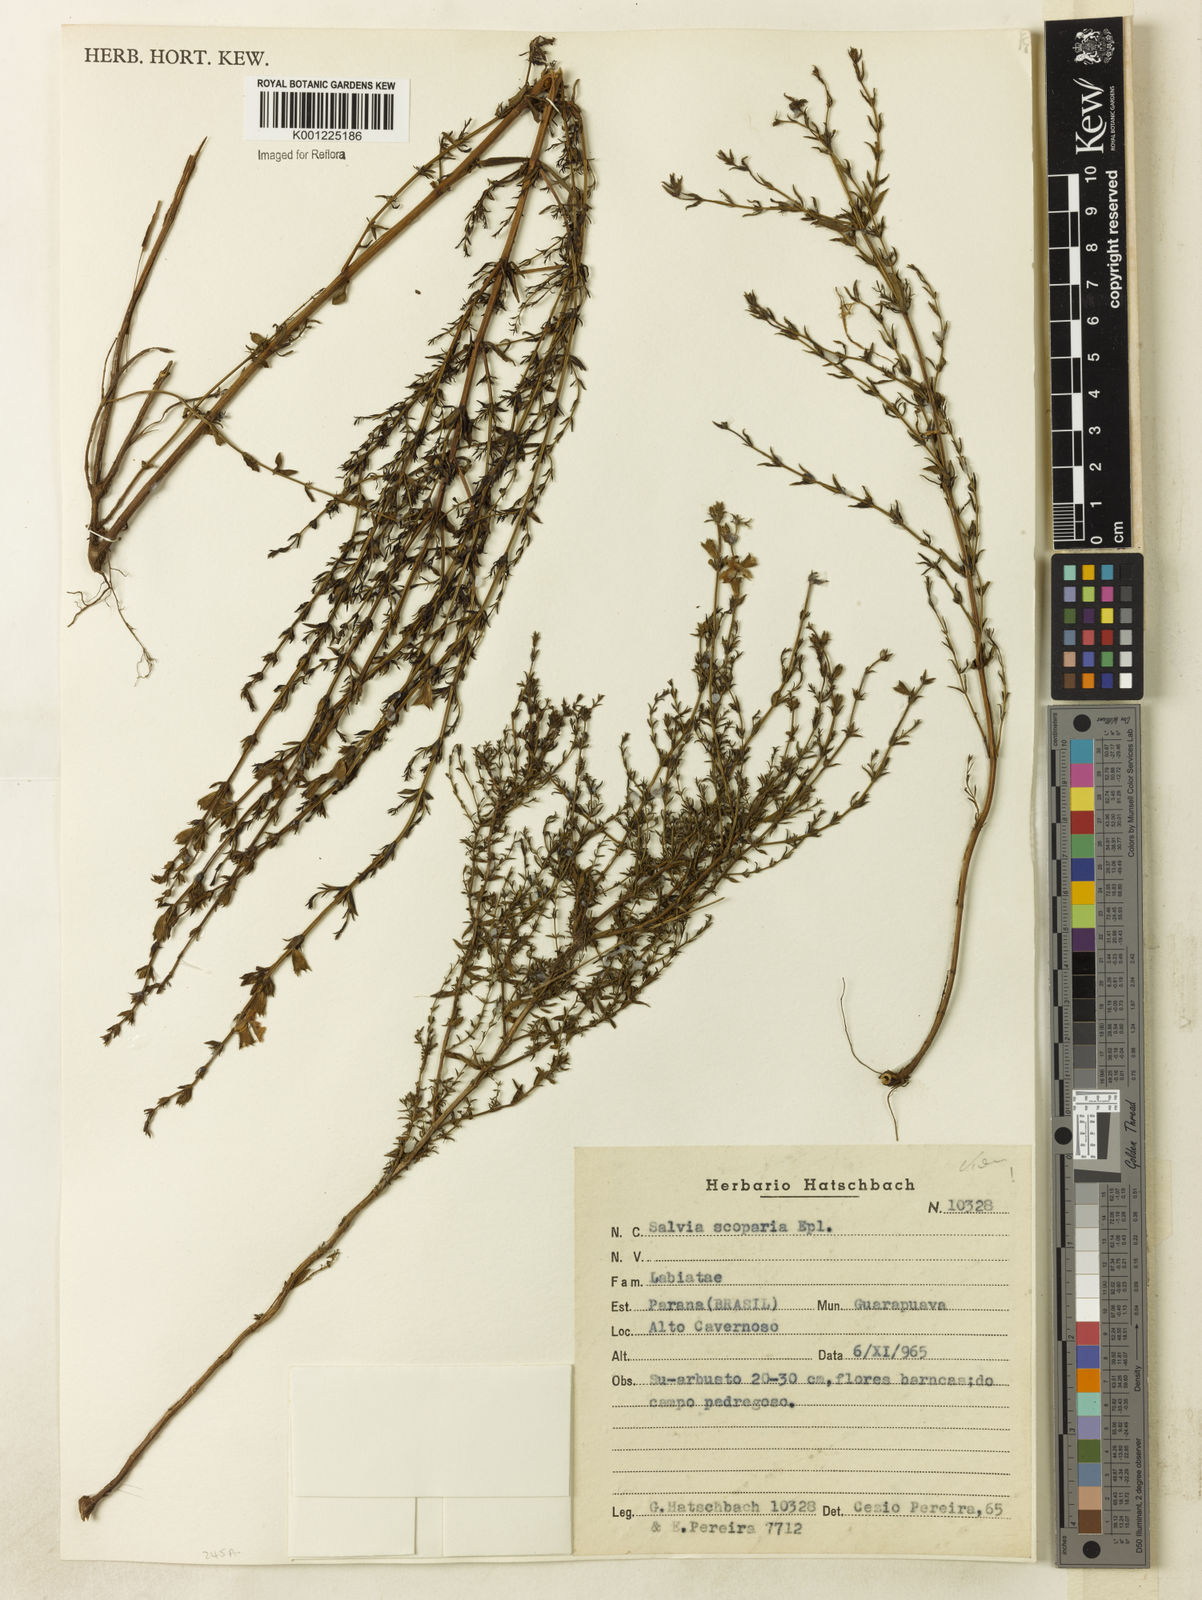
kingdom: Plantae
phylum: Tracheophyta
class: Magnoliopsida
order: Lamiales
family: Lamiaceae
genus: Salvia
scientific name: Salvia scoparia
